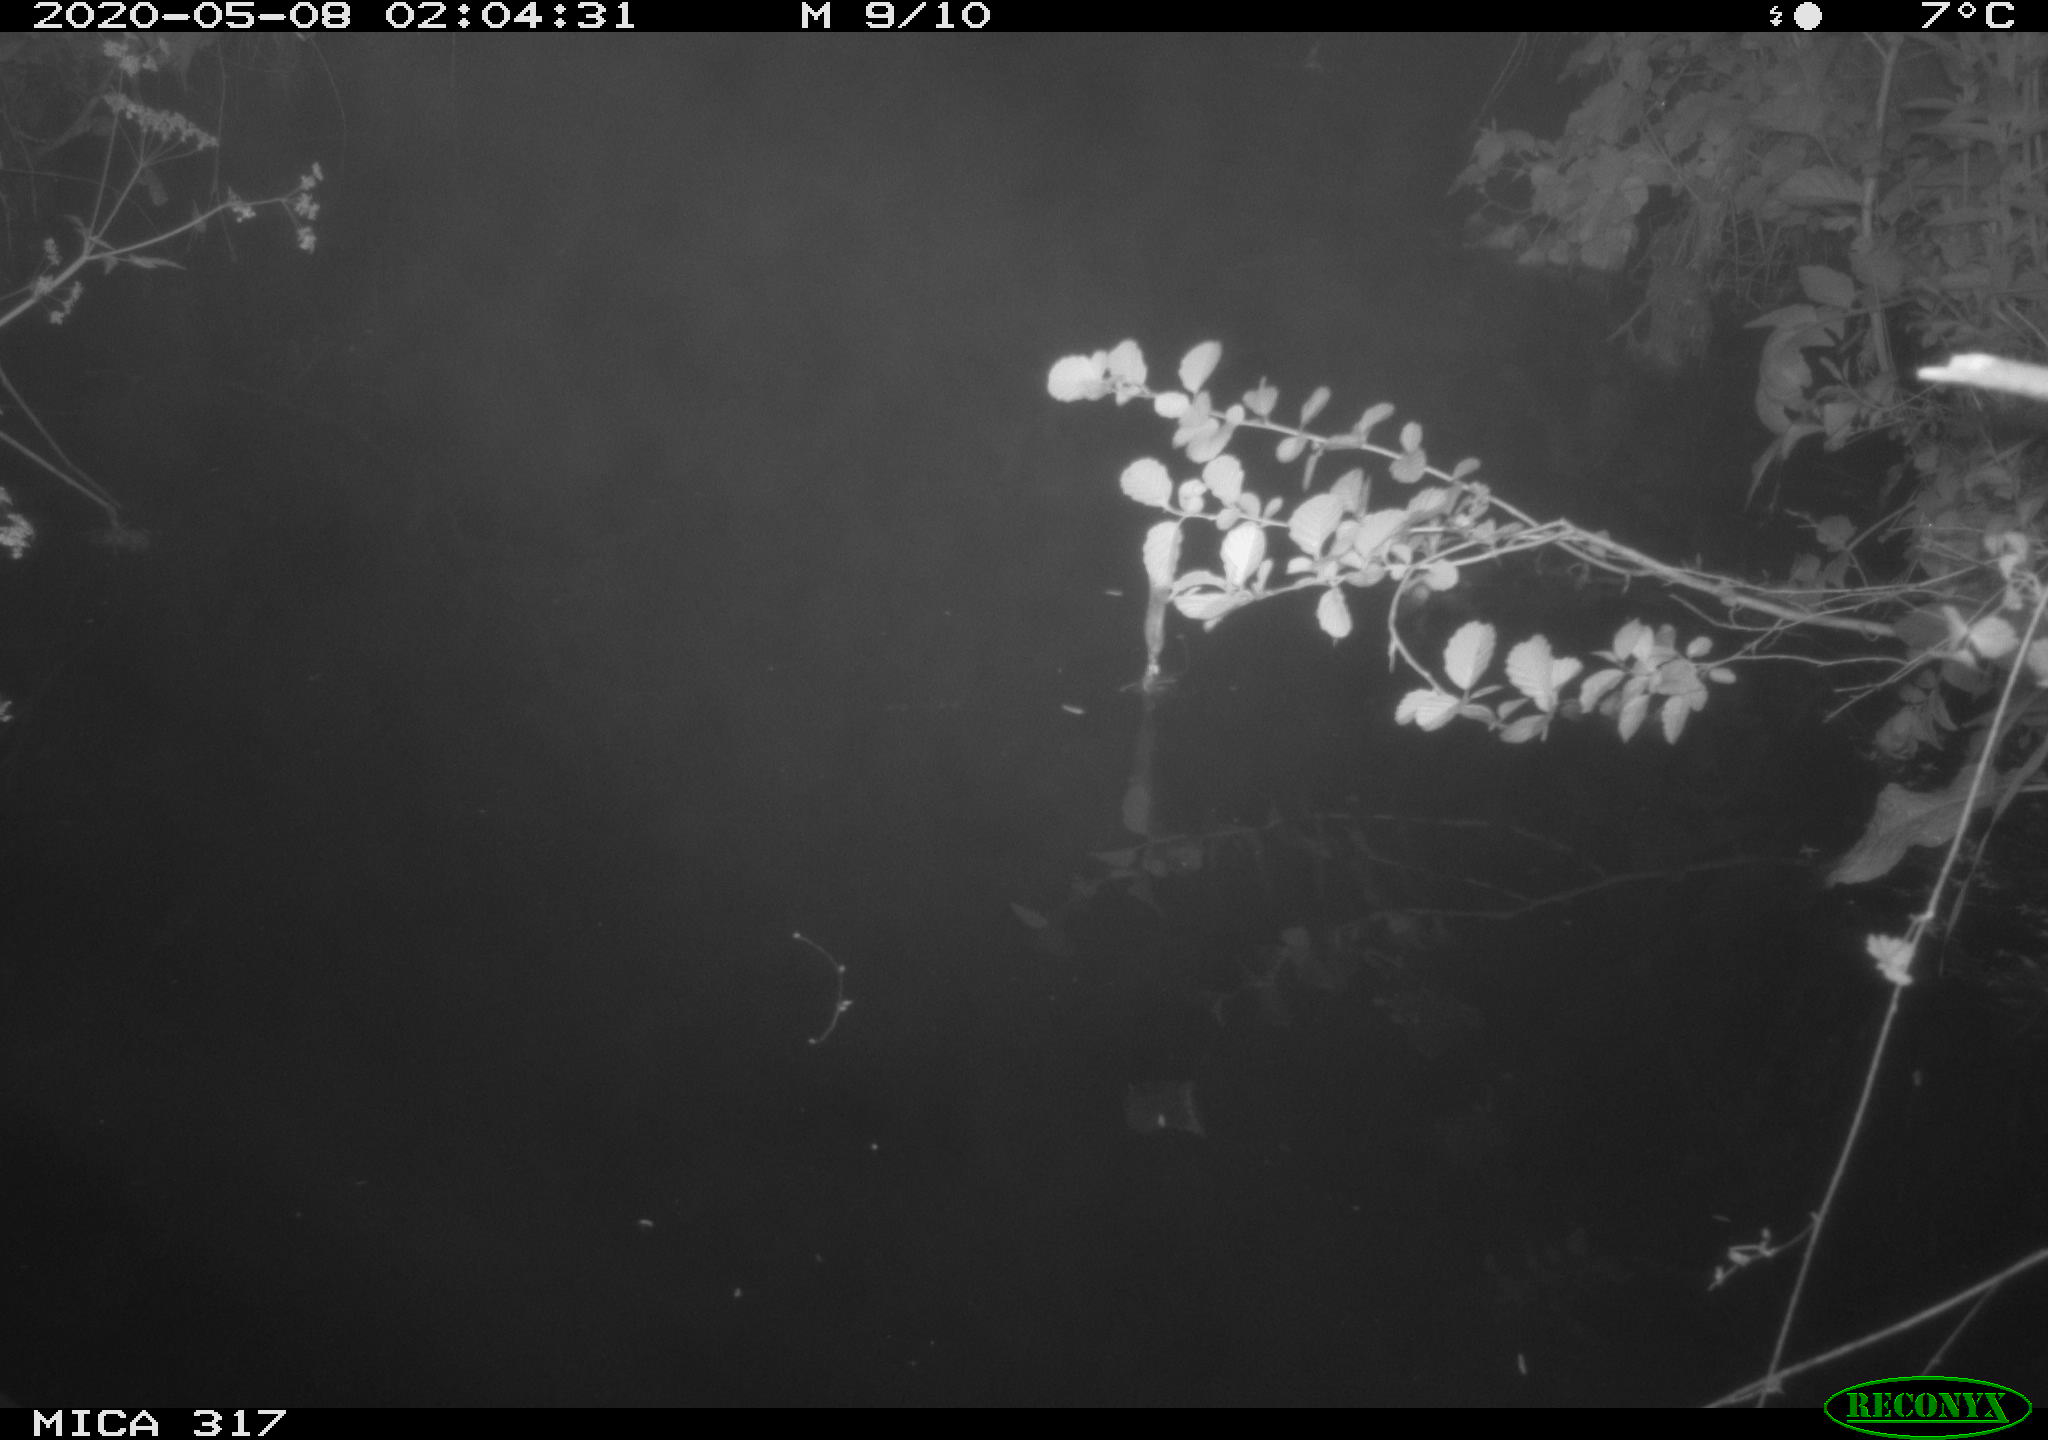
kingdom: Animalia
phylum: Chordata
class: Aves
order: Anseriformes
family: Anatidae
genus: Anas
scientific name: Anas platyrhynchos
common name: Mallard
